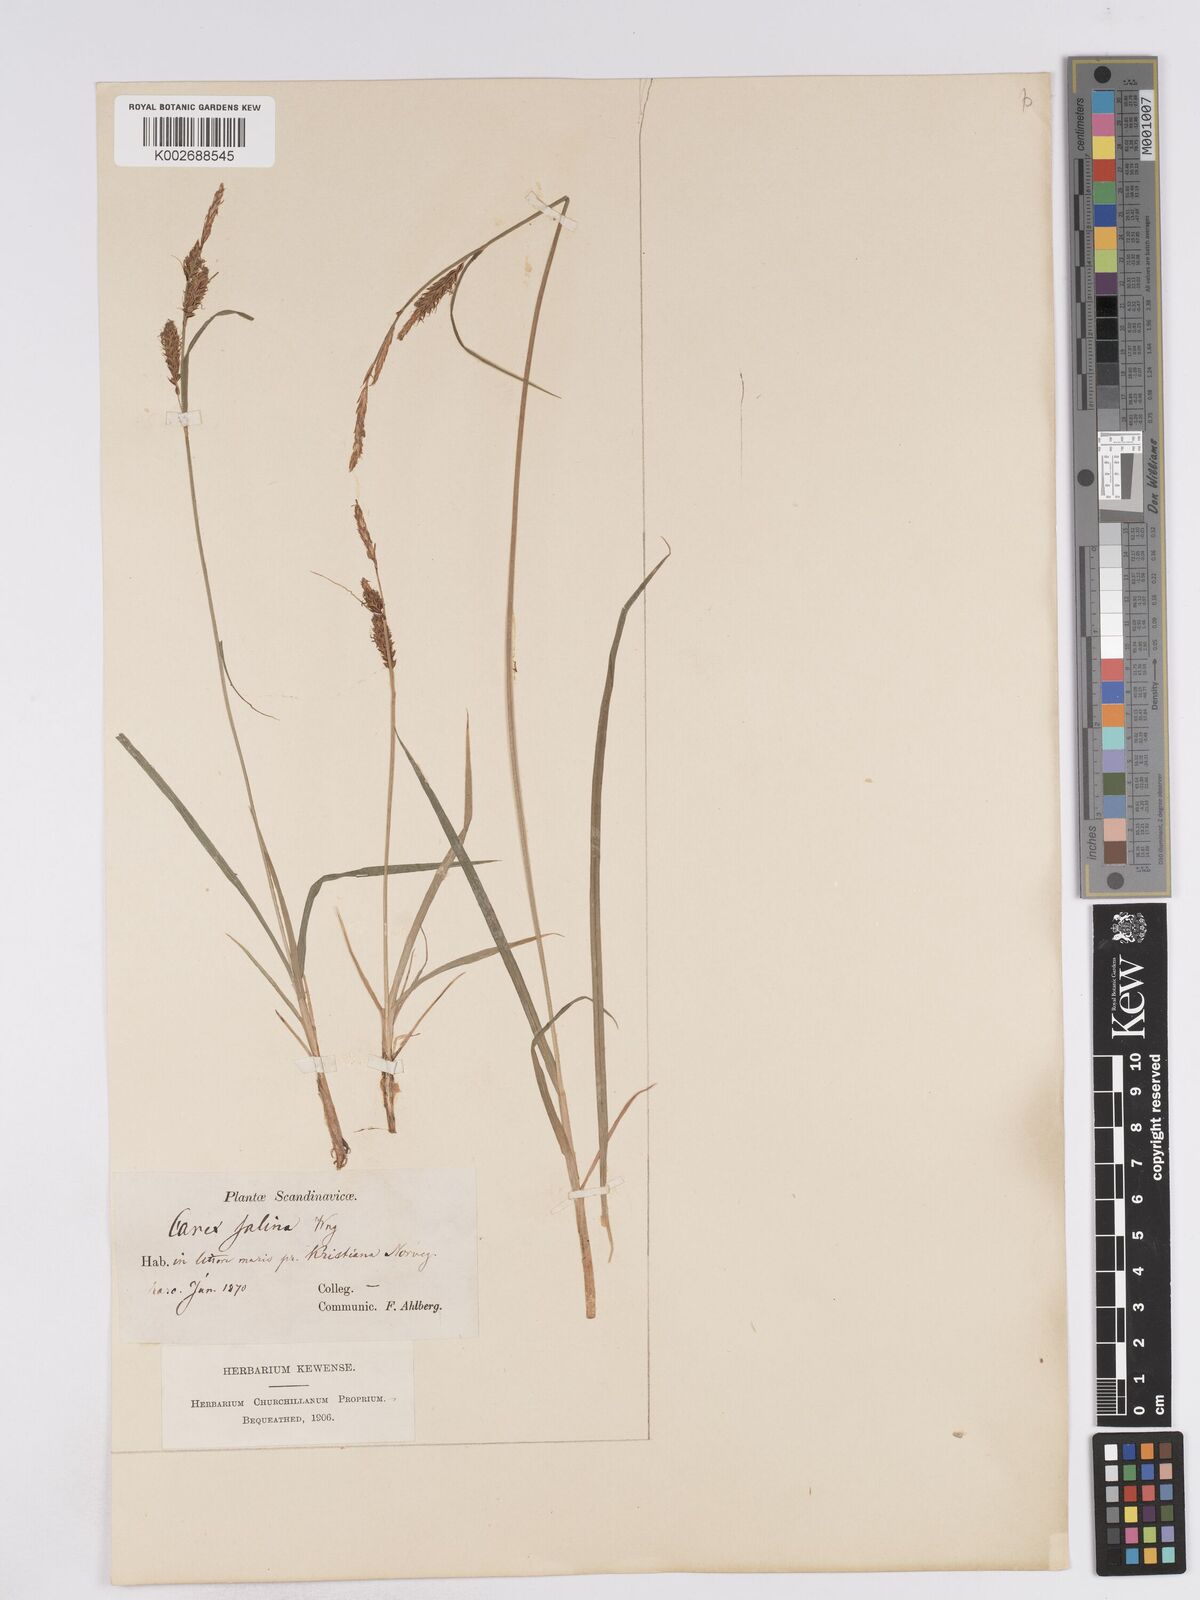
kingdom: Plantae
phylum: Tracheophyta
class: Liliopsida
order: Poales
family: Cyperaceae
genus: Carex
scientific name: Carex recta
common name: Estuarine sedge
